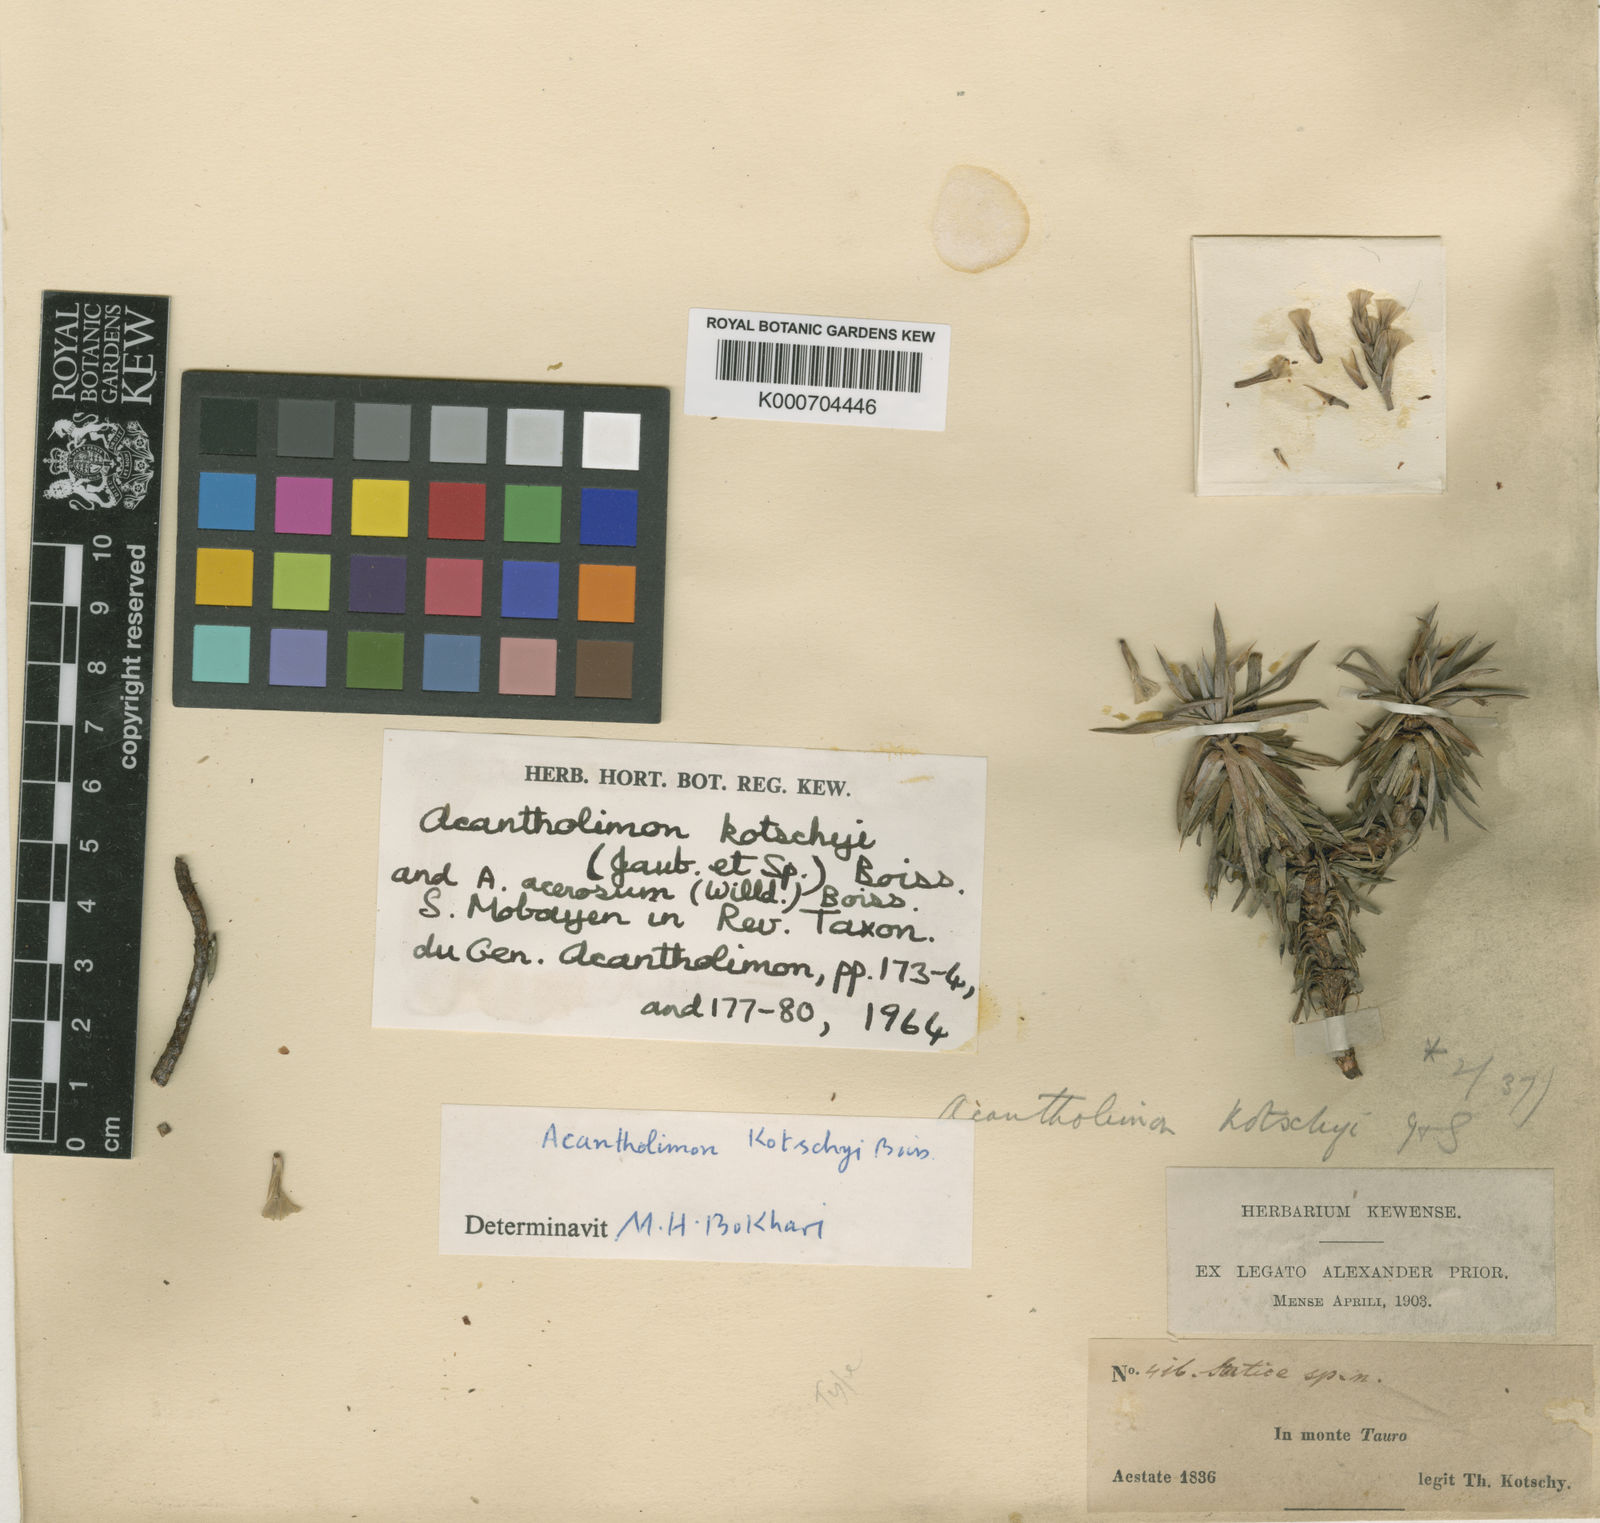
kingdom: Plantae
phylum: Tracheophyta
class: Magnoliopsida
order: Caryophyllales
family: Plumbaginaceae
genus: Acantholimon
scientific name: Acantholimon kotschyi
